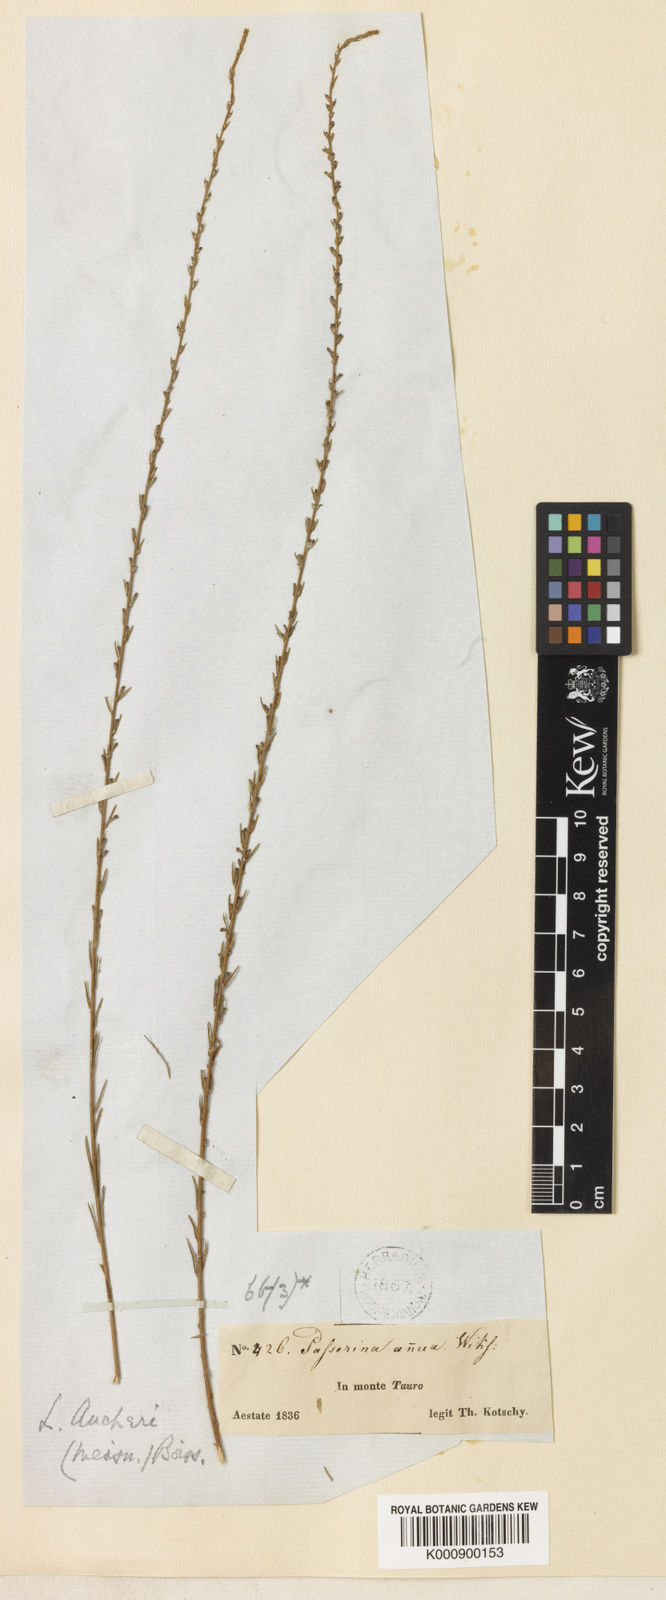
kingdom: Plantae
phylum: Tracheophyta
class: Magnoliopsida
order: Malvales
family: Thymelaeaceae
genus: Wikstroemia
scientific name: Wikstroemia
